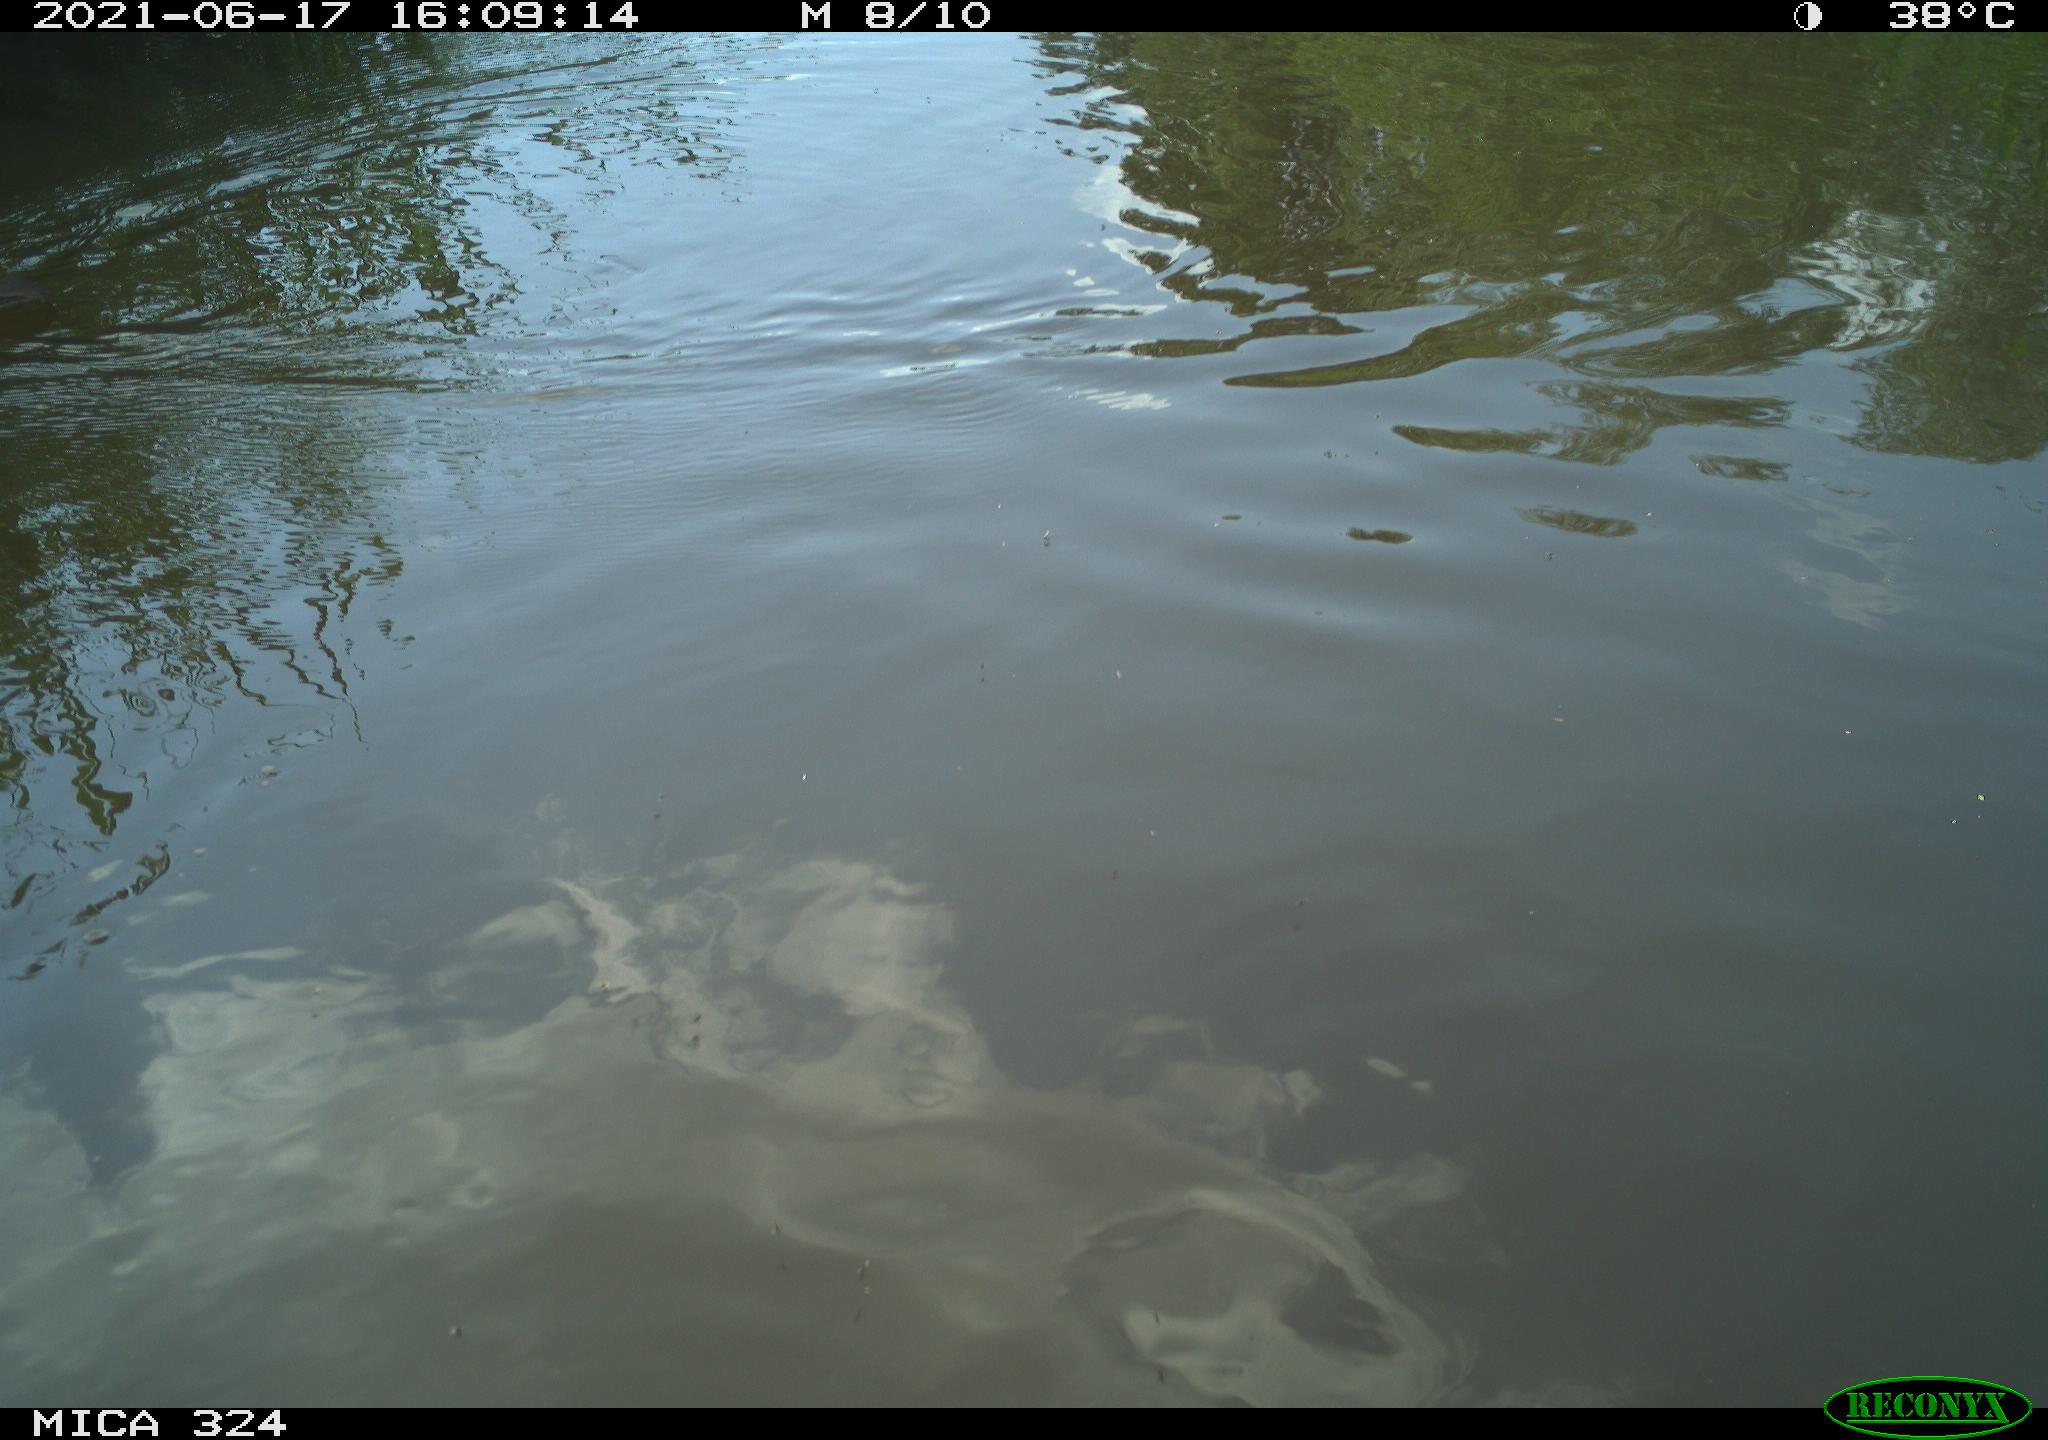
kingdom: Animalia
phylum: Chordata
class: Aves
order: Gruiformes
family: Rallidae
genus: Gallinula
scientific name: Gallinula chloropus
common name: Common moorhen
